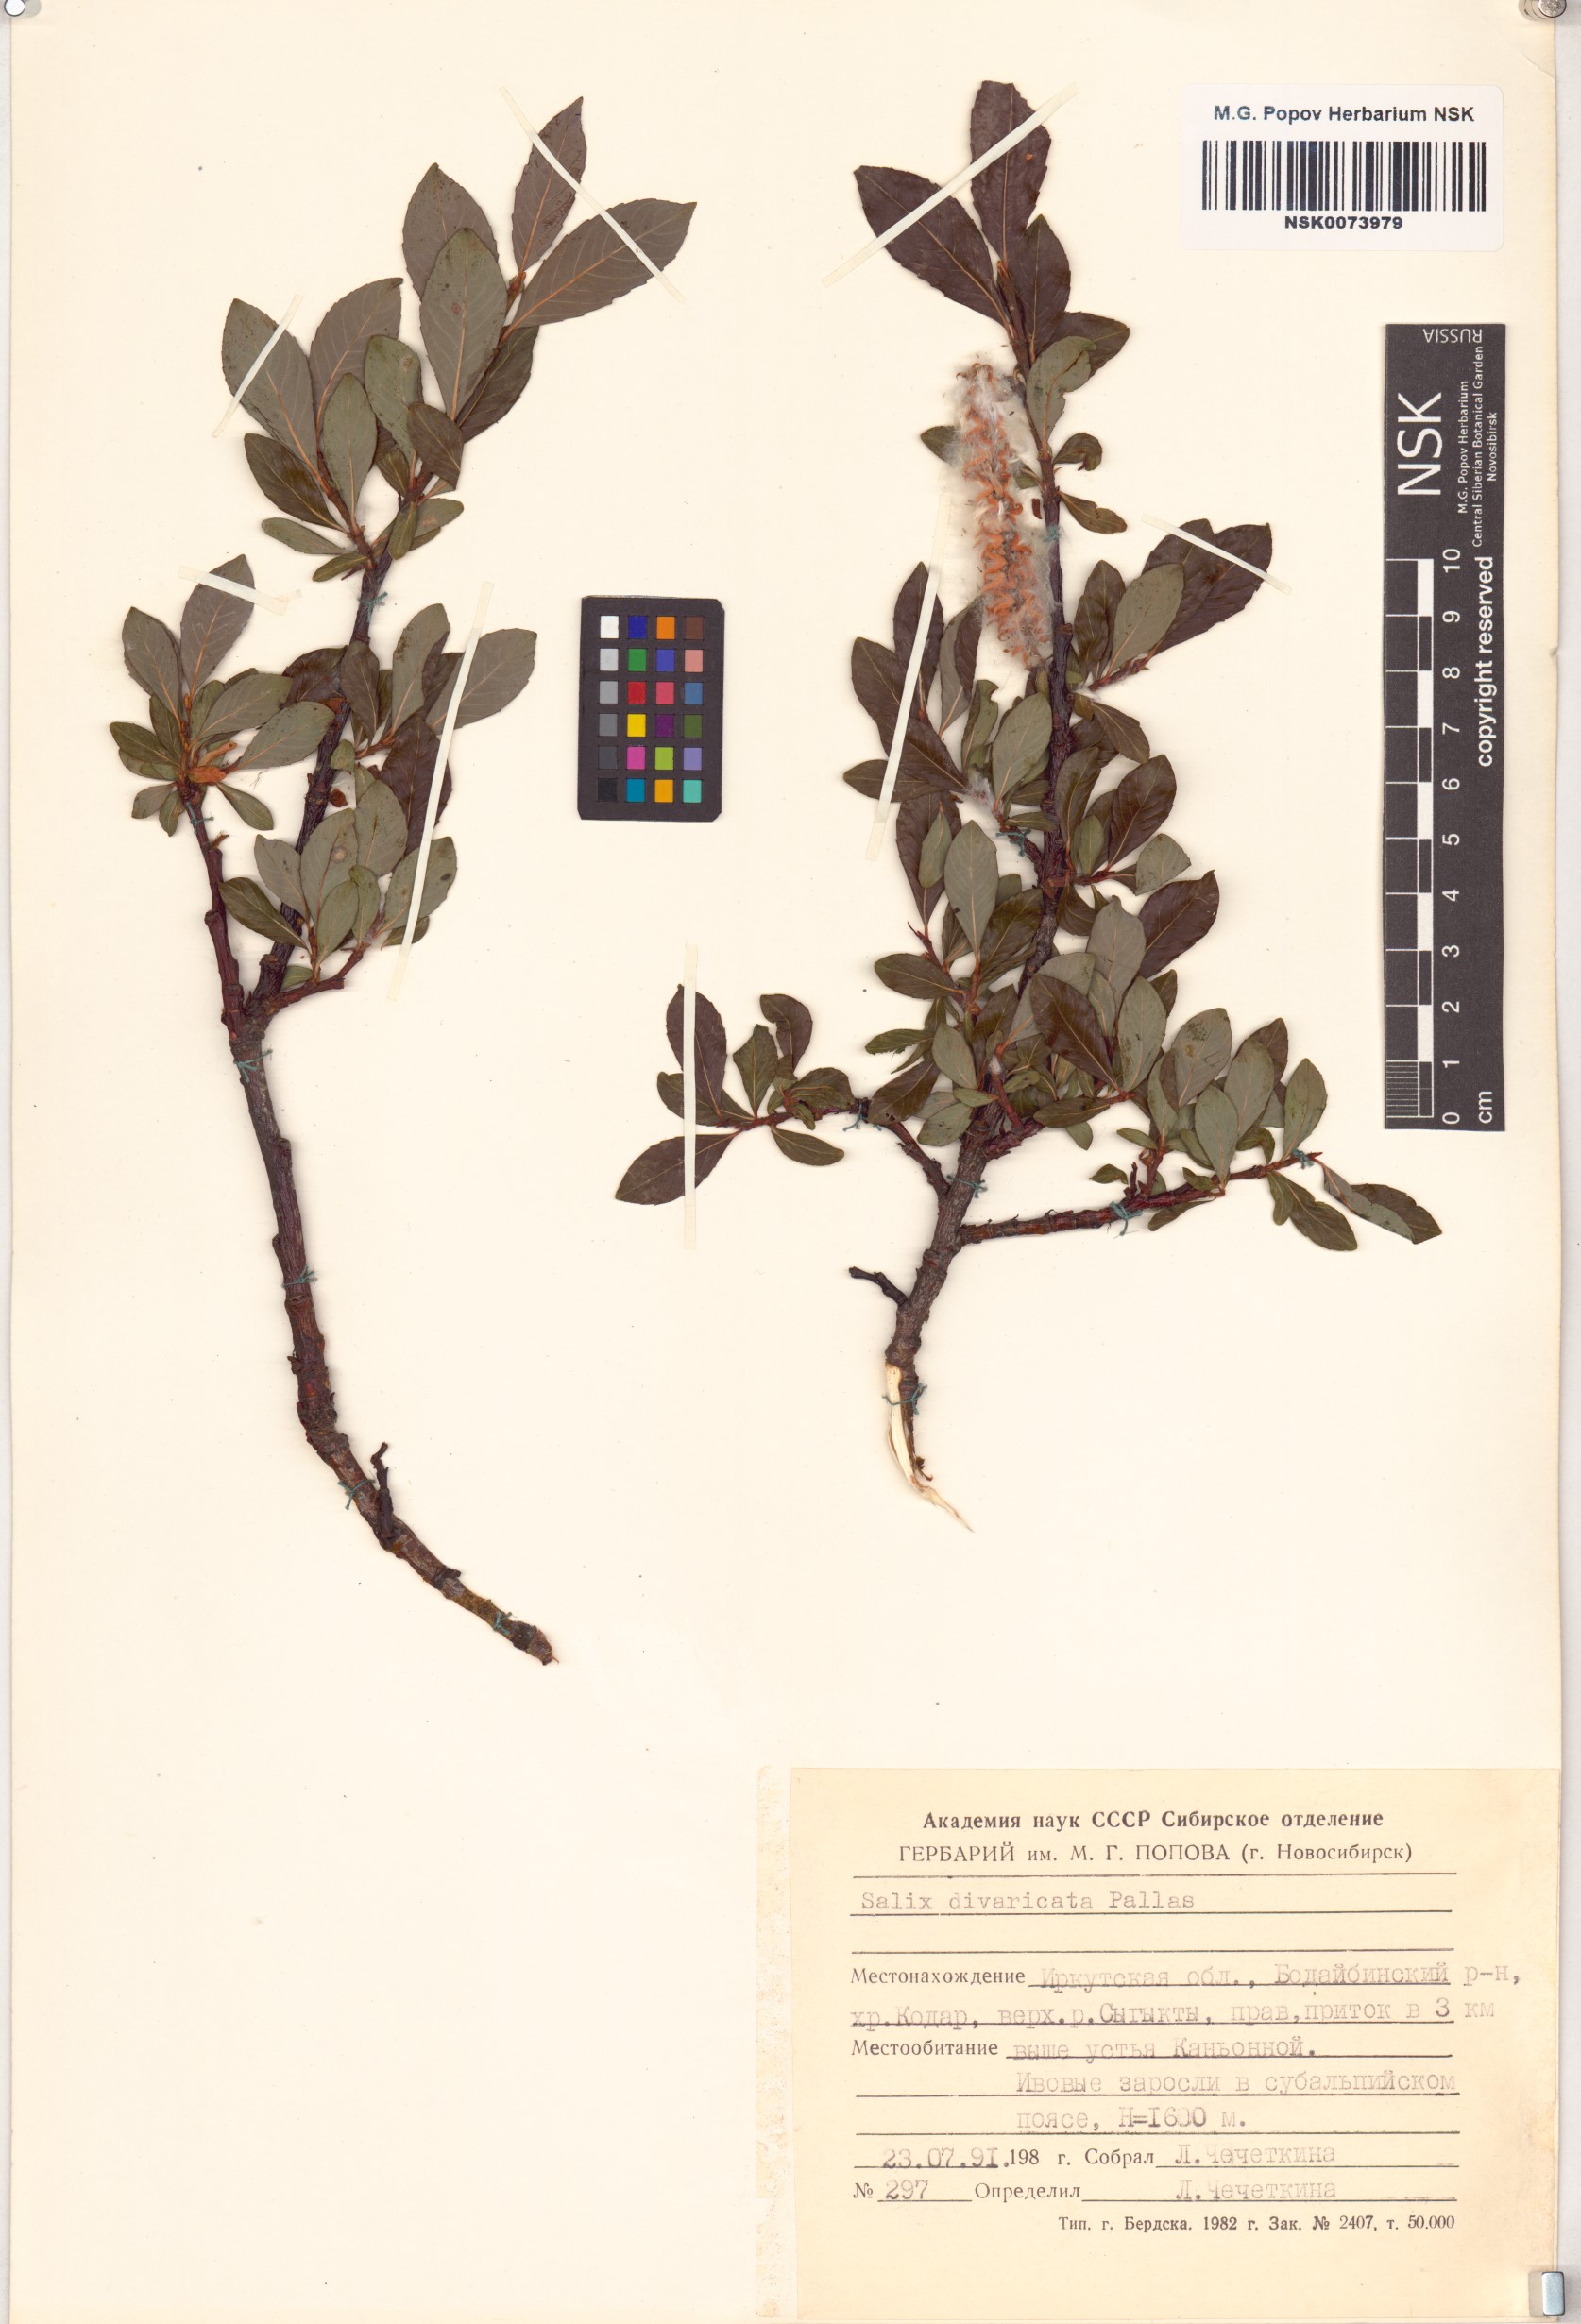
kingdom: Plantae
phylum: Tracheophyta
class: Magnoliopsida
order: Malpighiales
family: Salicaceae
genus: Salix
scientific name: Salix divaricata
